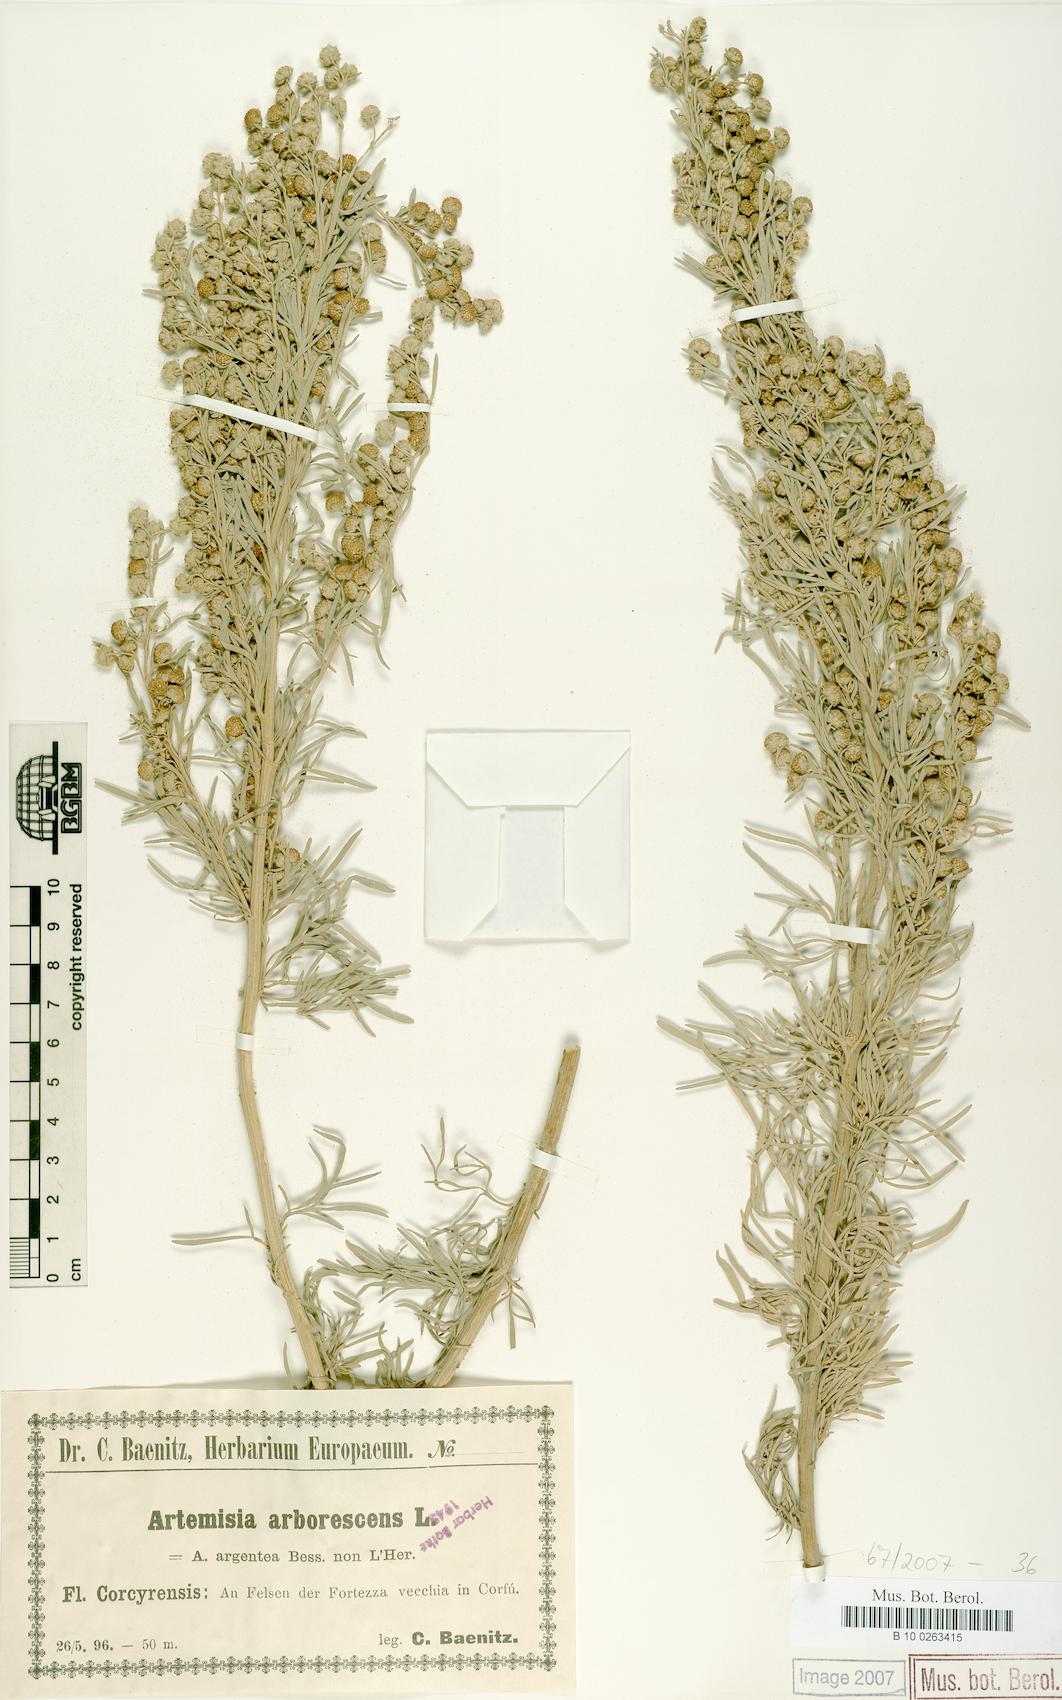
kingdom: Plantae
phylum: Tracheophyta
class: Magnoliopsida
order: Asterales
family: Asteraceae
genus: Artemisia
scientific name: Artemisia arborescens
